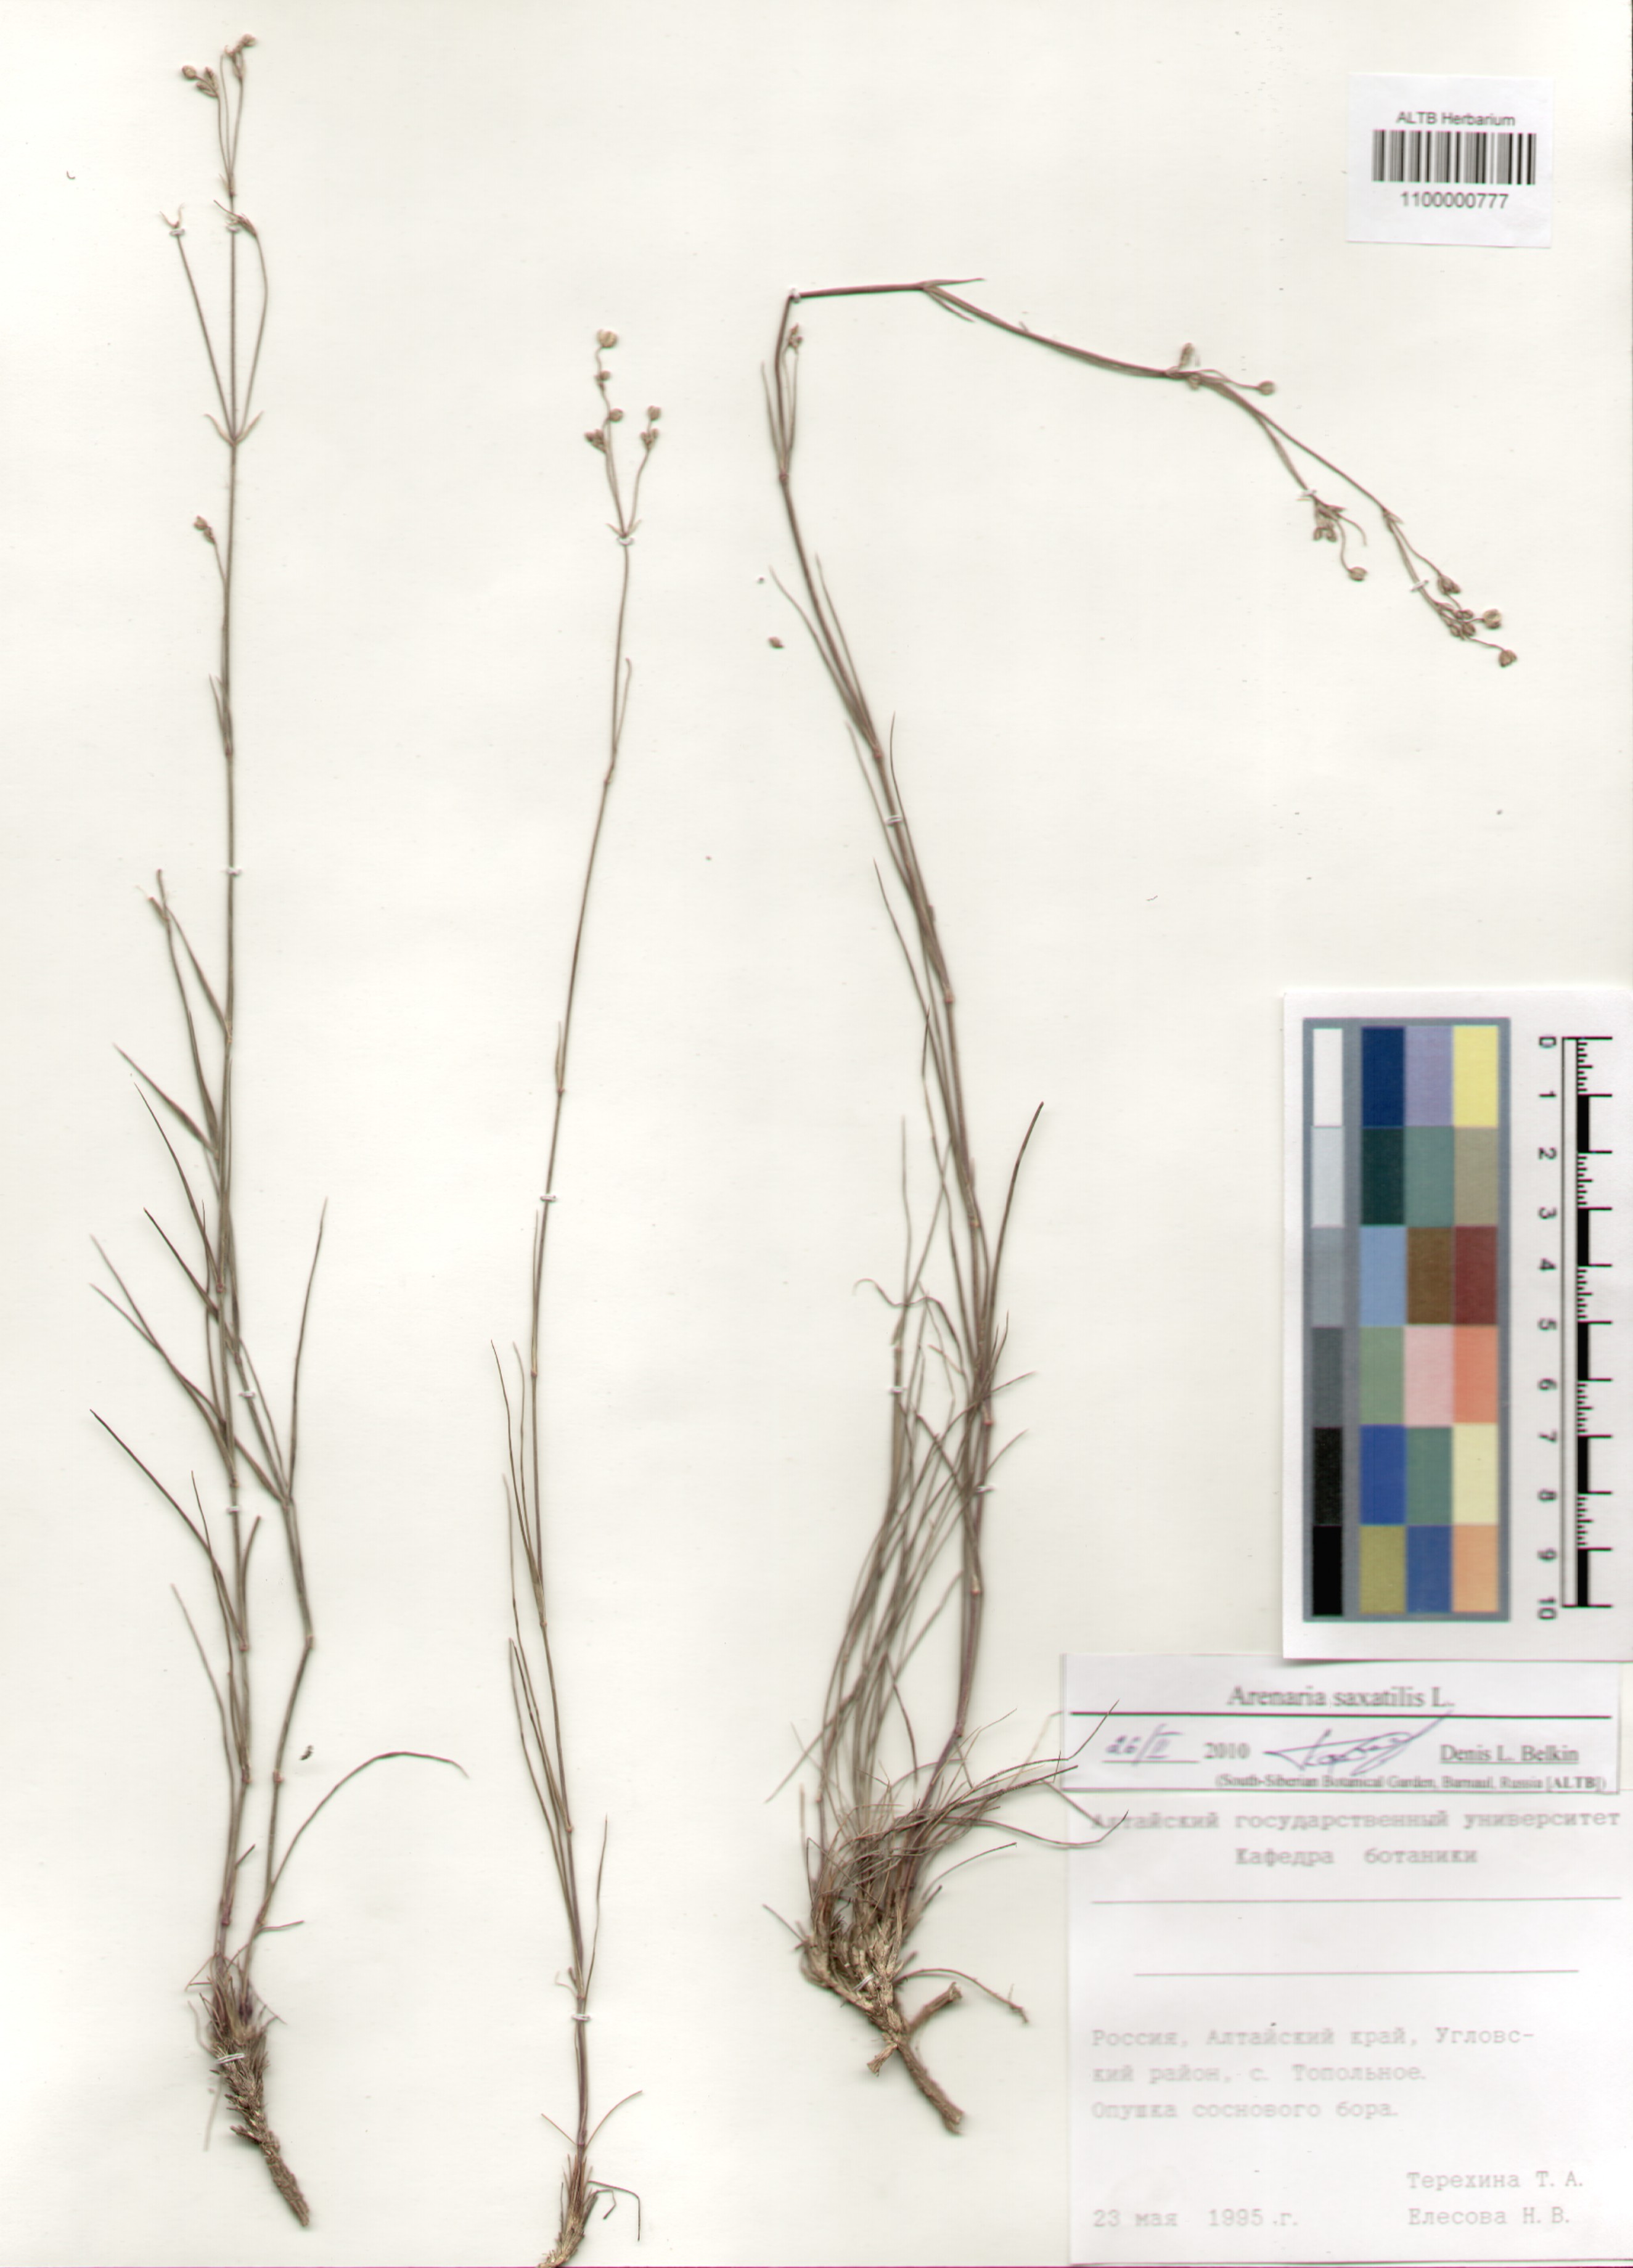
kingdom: Plantae
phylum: Tracheophyta
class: Magnoliopsida
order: Caryophyllales
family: Caryophyllaceae
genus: Eremogone
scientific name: Eremogone saxatilis
